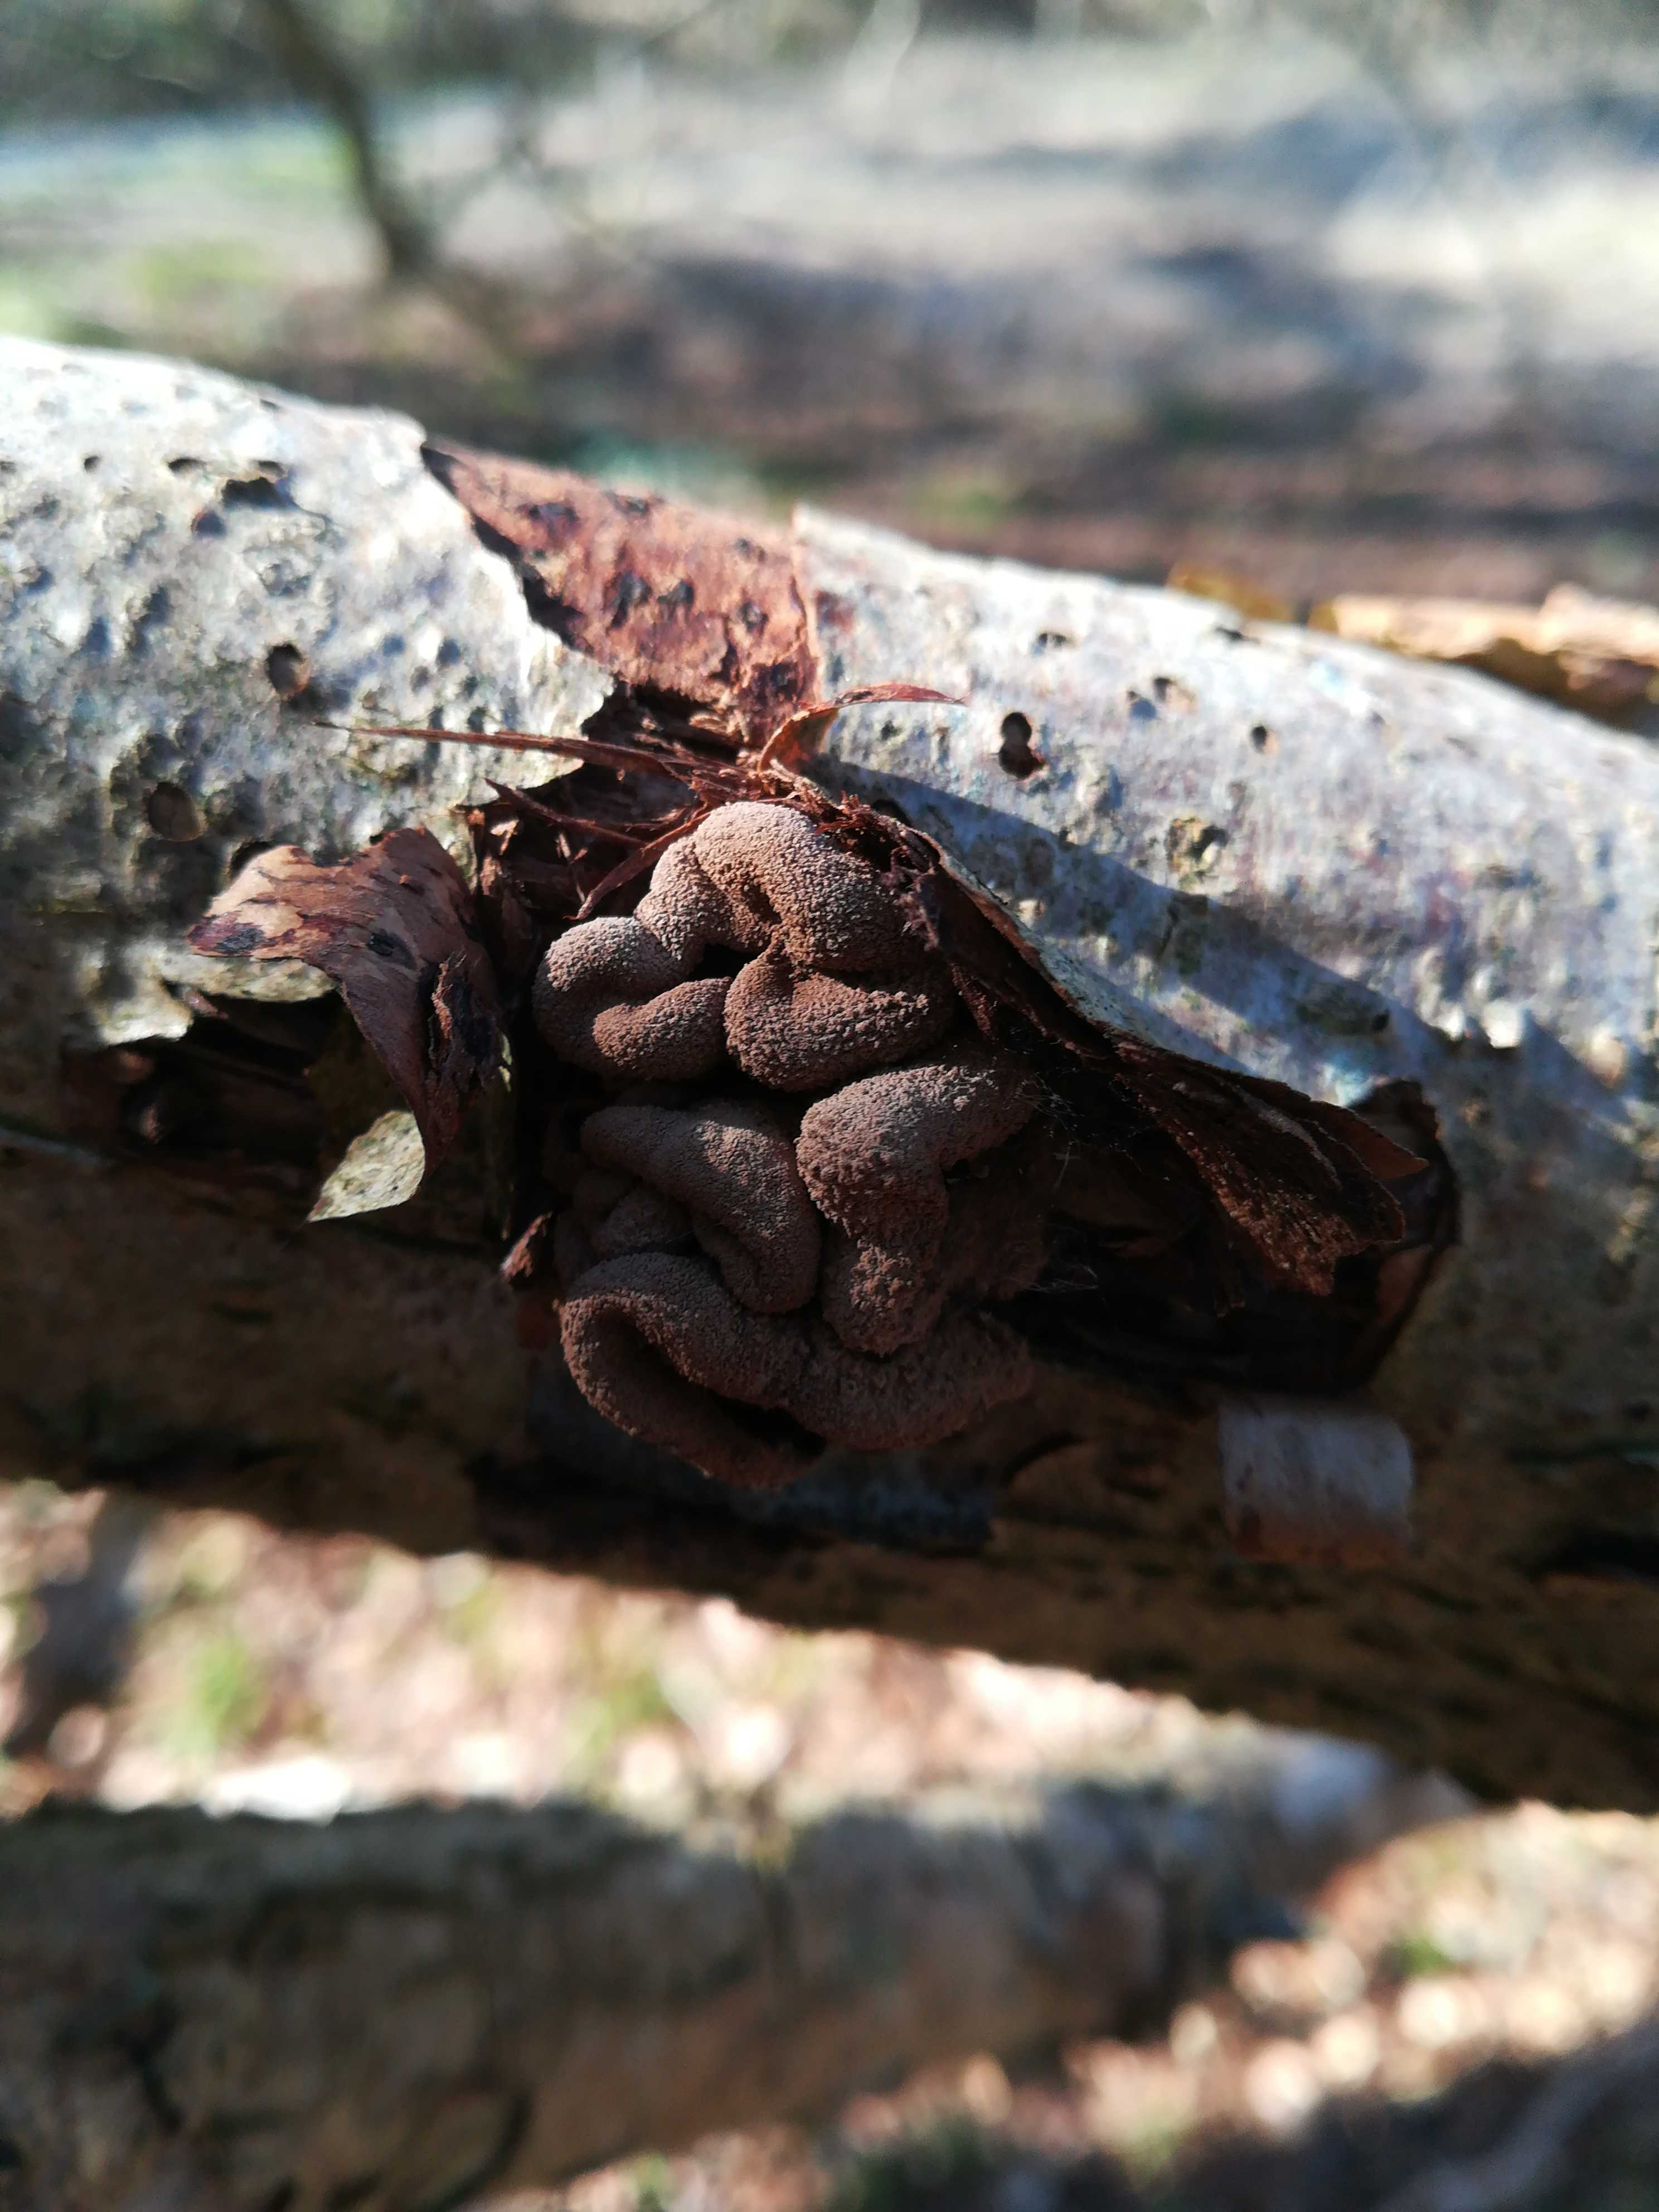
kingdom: Fungi
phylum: Ascomycota
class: Leotiomycetes
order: Helotiales
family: Cenangiaceae
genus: Encoelia
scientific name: Encoelia furfuracea
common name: hassel-læderskive
